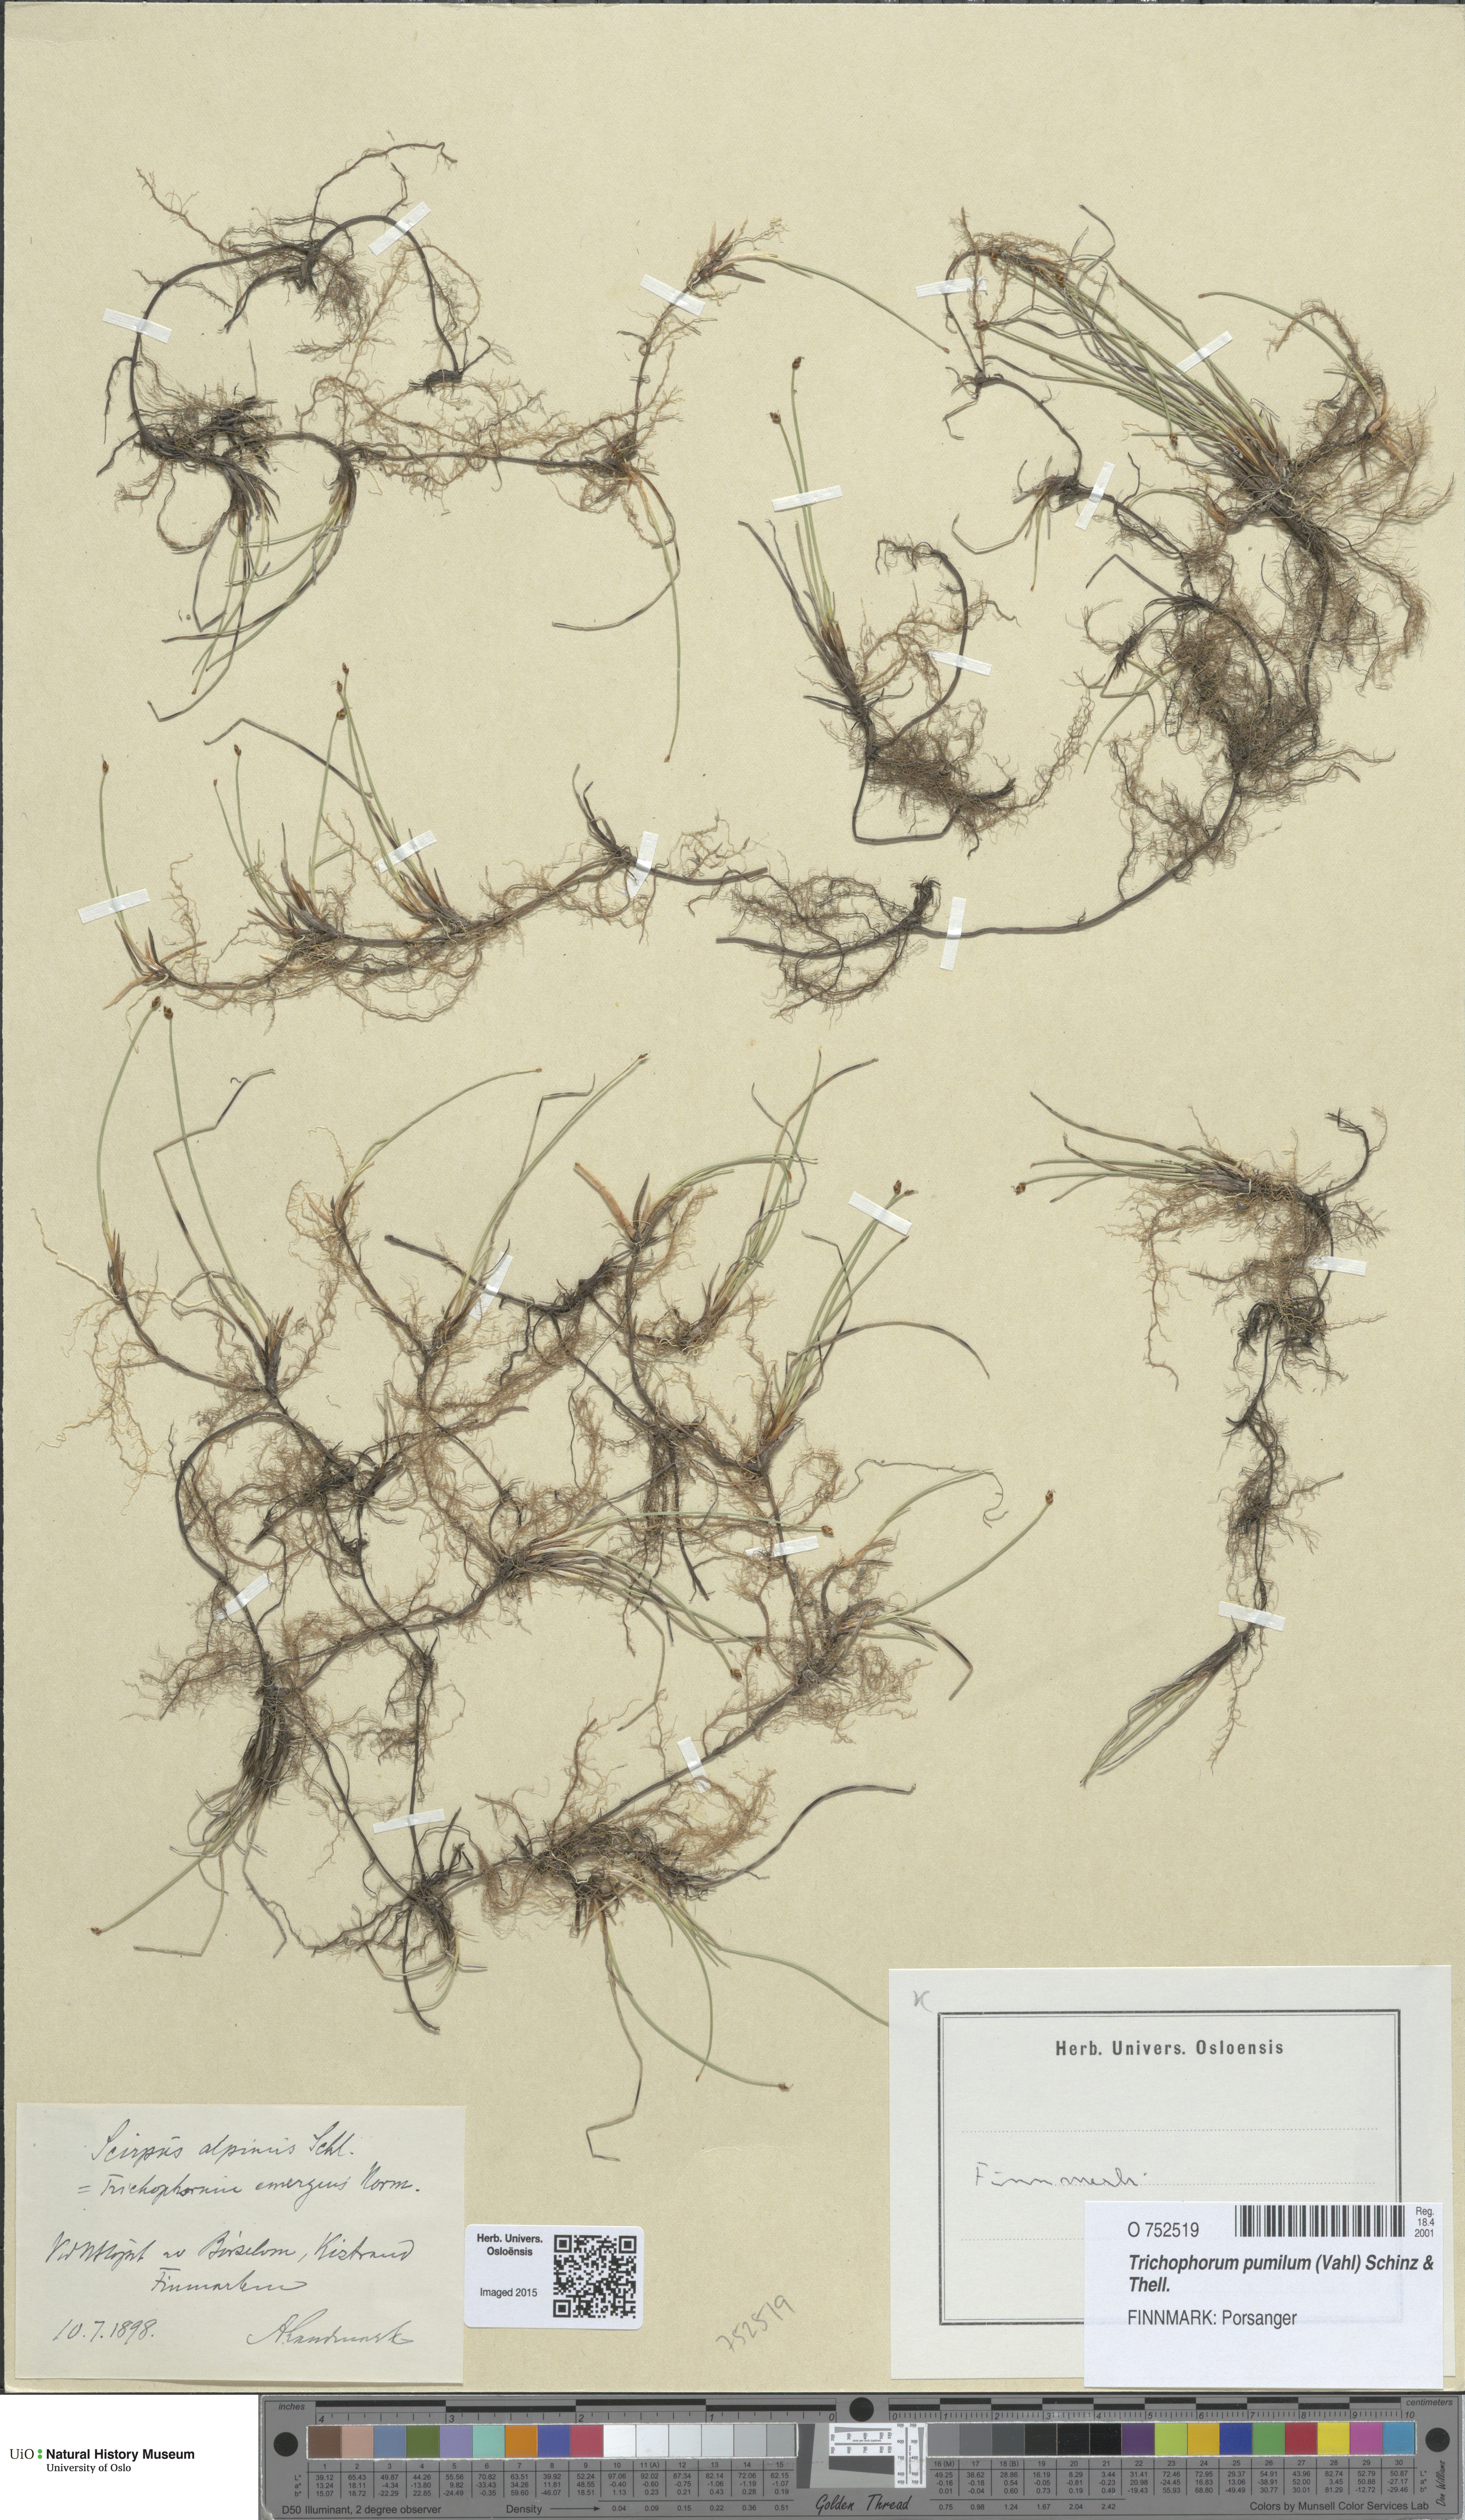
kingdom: Plantae
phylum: Tracheophyta
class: Liliopsida
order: Poales
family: Cyperaceae
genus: Trichophorum
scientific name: Trichophorum pumilum
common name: Rolland's bulrush
